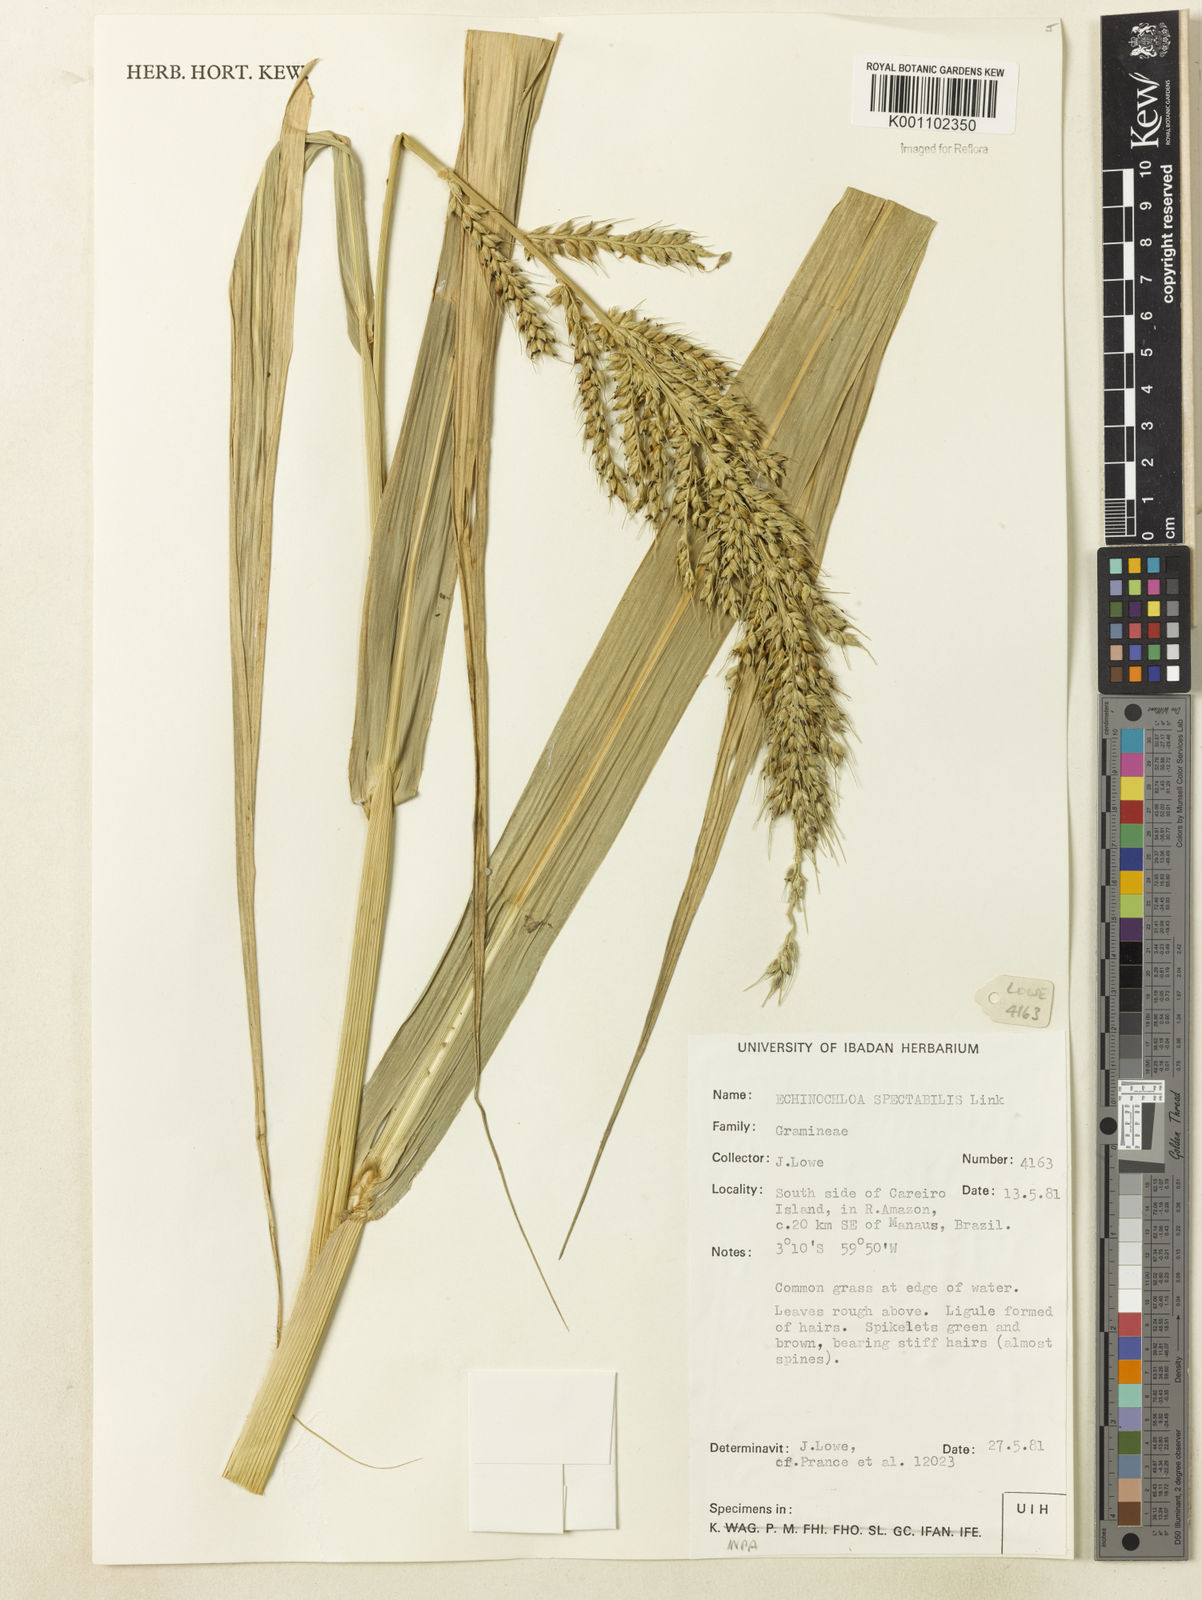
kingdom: Plantae
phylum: Tracheophyta
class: Liliopsida
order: Poales
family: Poaceae
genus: Echinochloa
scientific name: Echinochloa polystachya
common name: Creeping river grass
